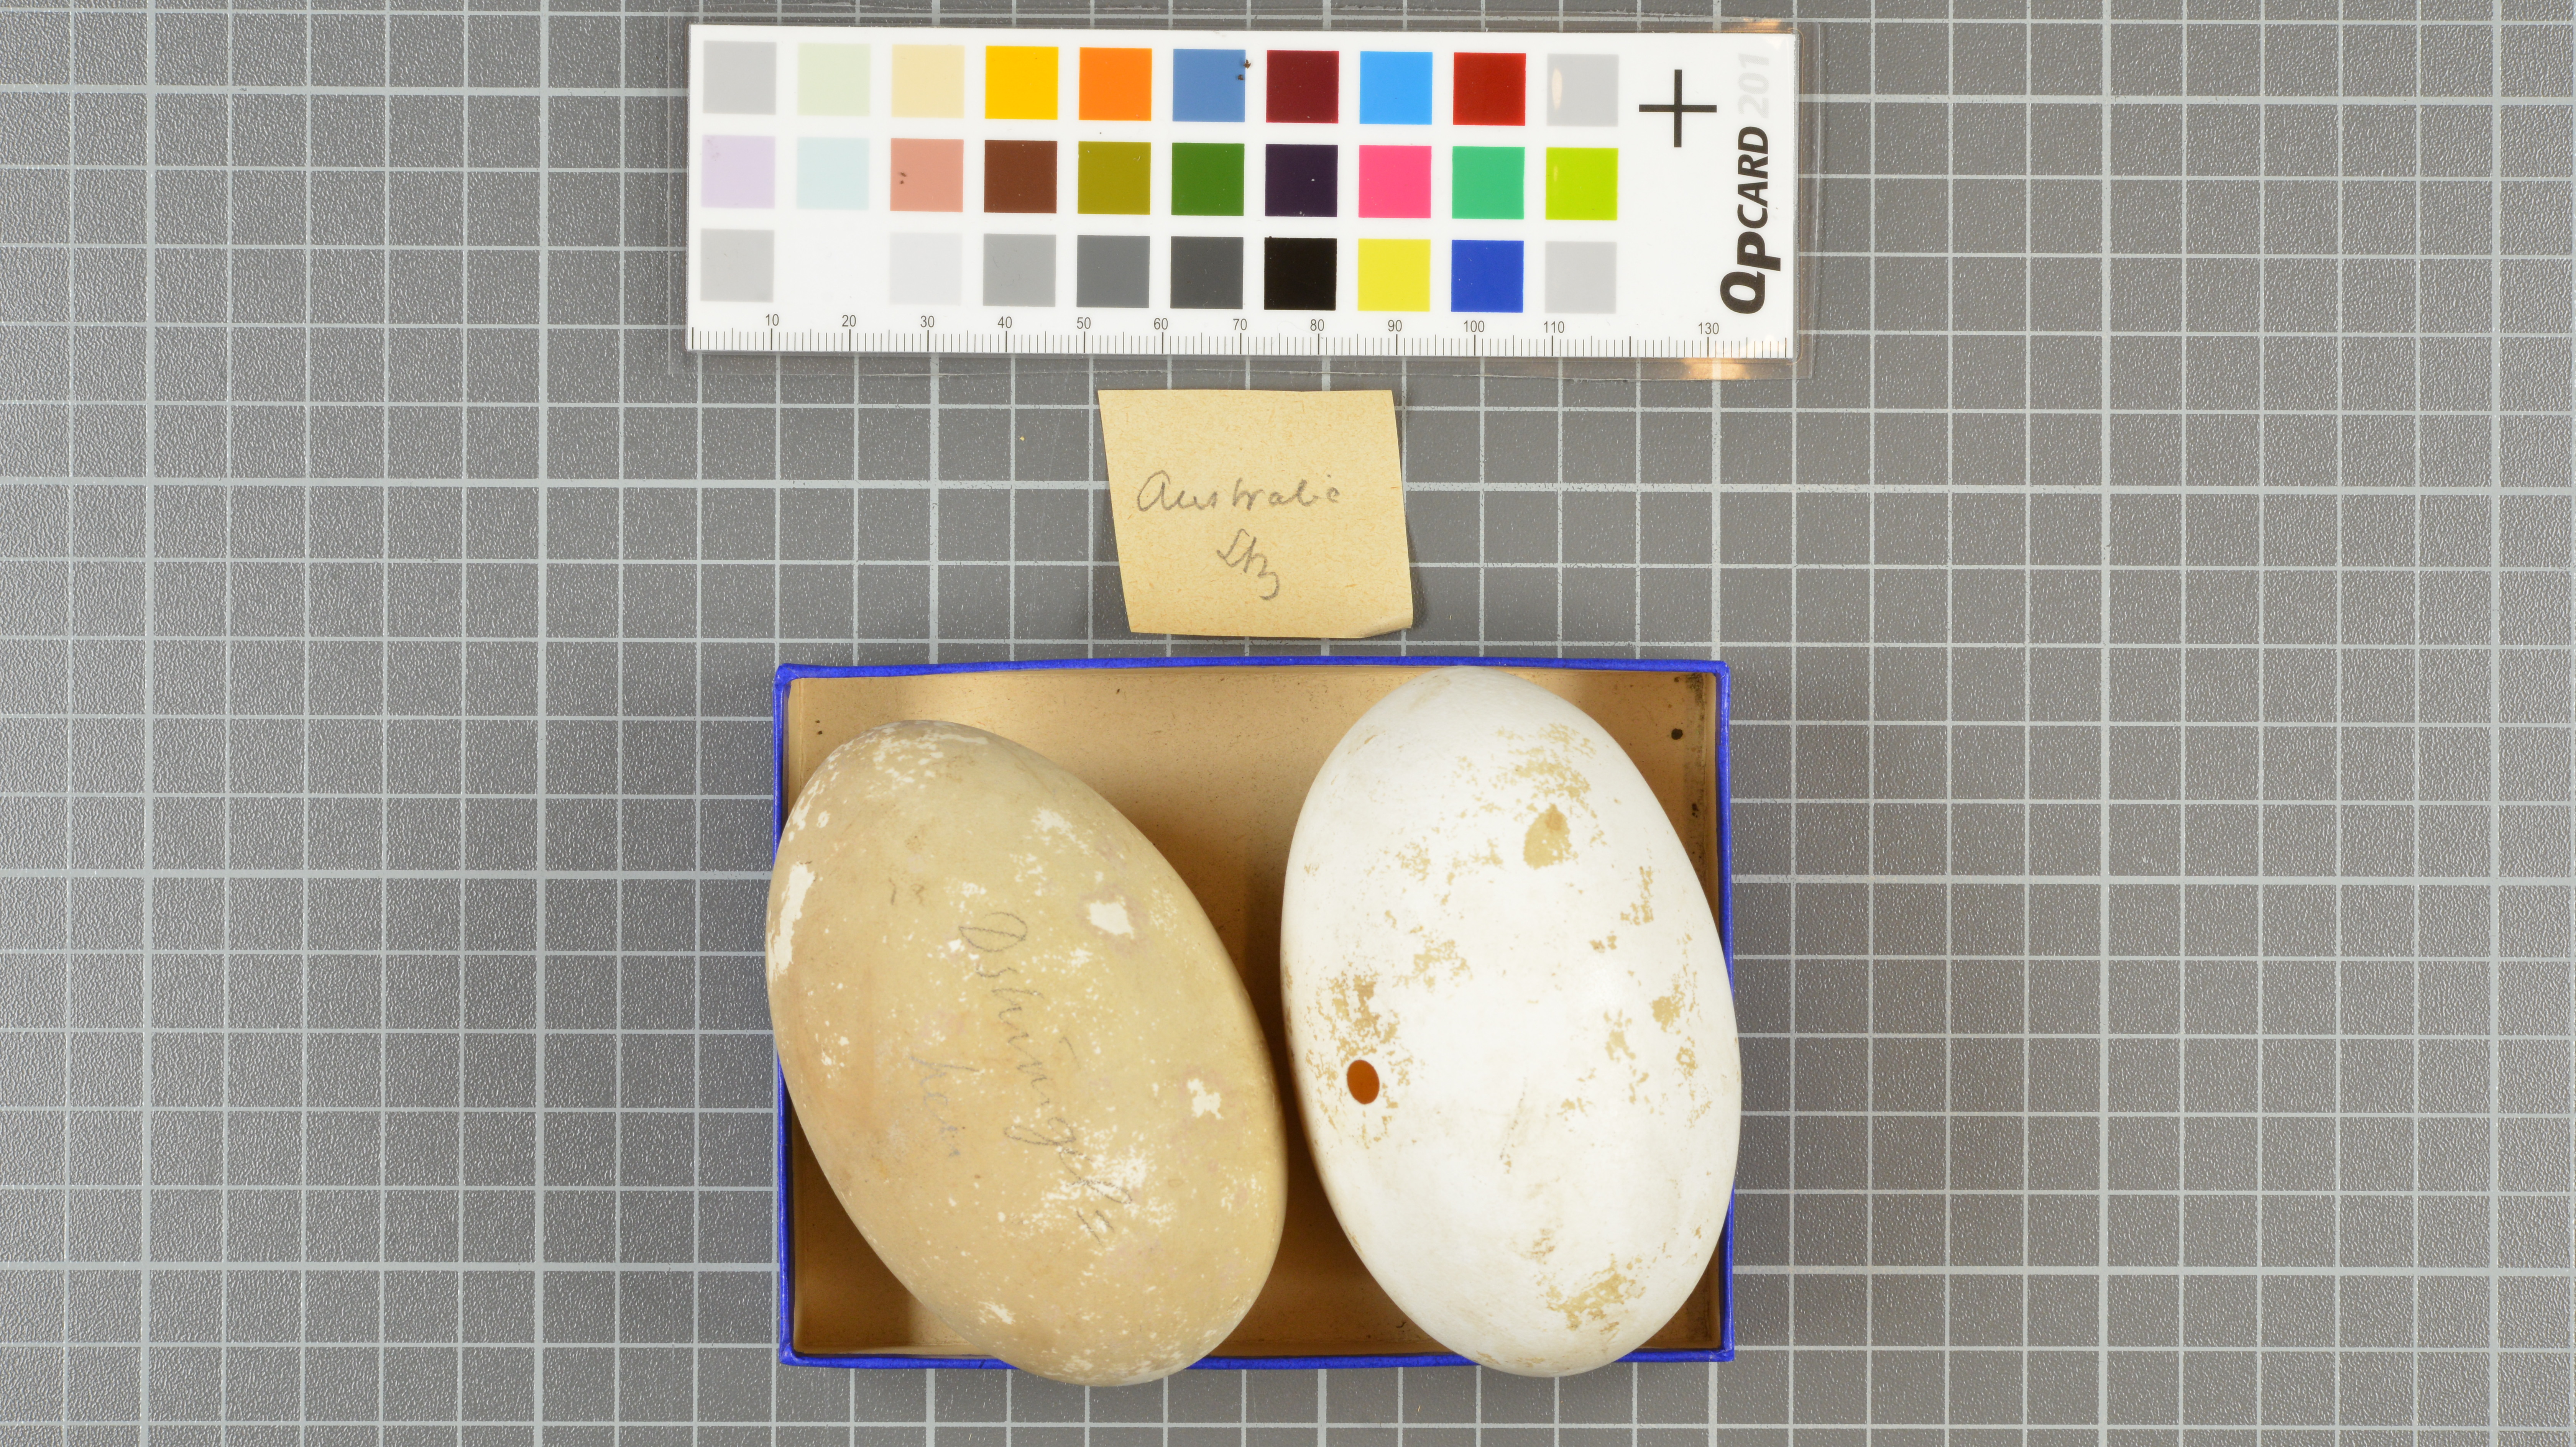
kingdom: Animalia
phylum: Chordata
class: Aves
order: Galliformes
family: Megapodiidae
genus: Megapodius
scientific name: Megapodius reinwardt
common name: Orange-footed scrubfowl
